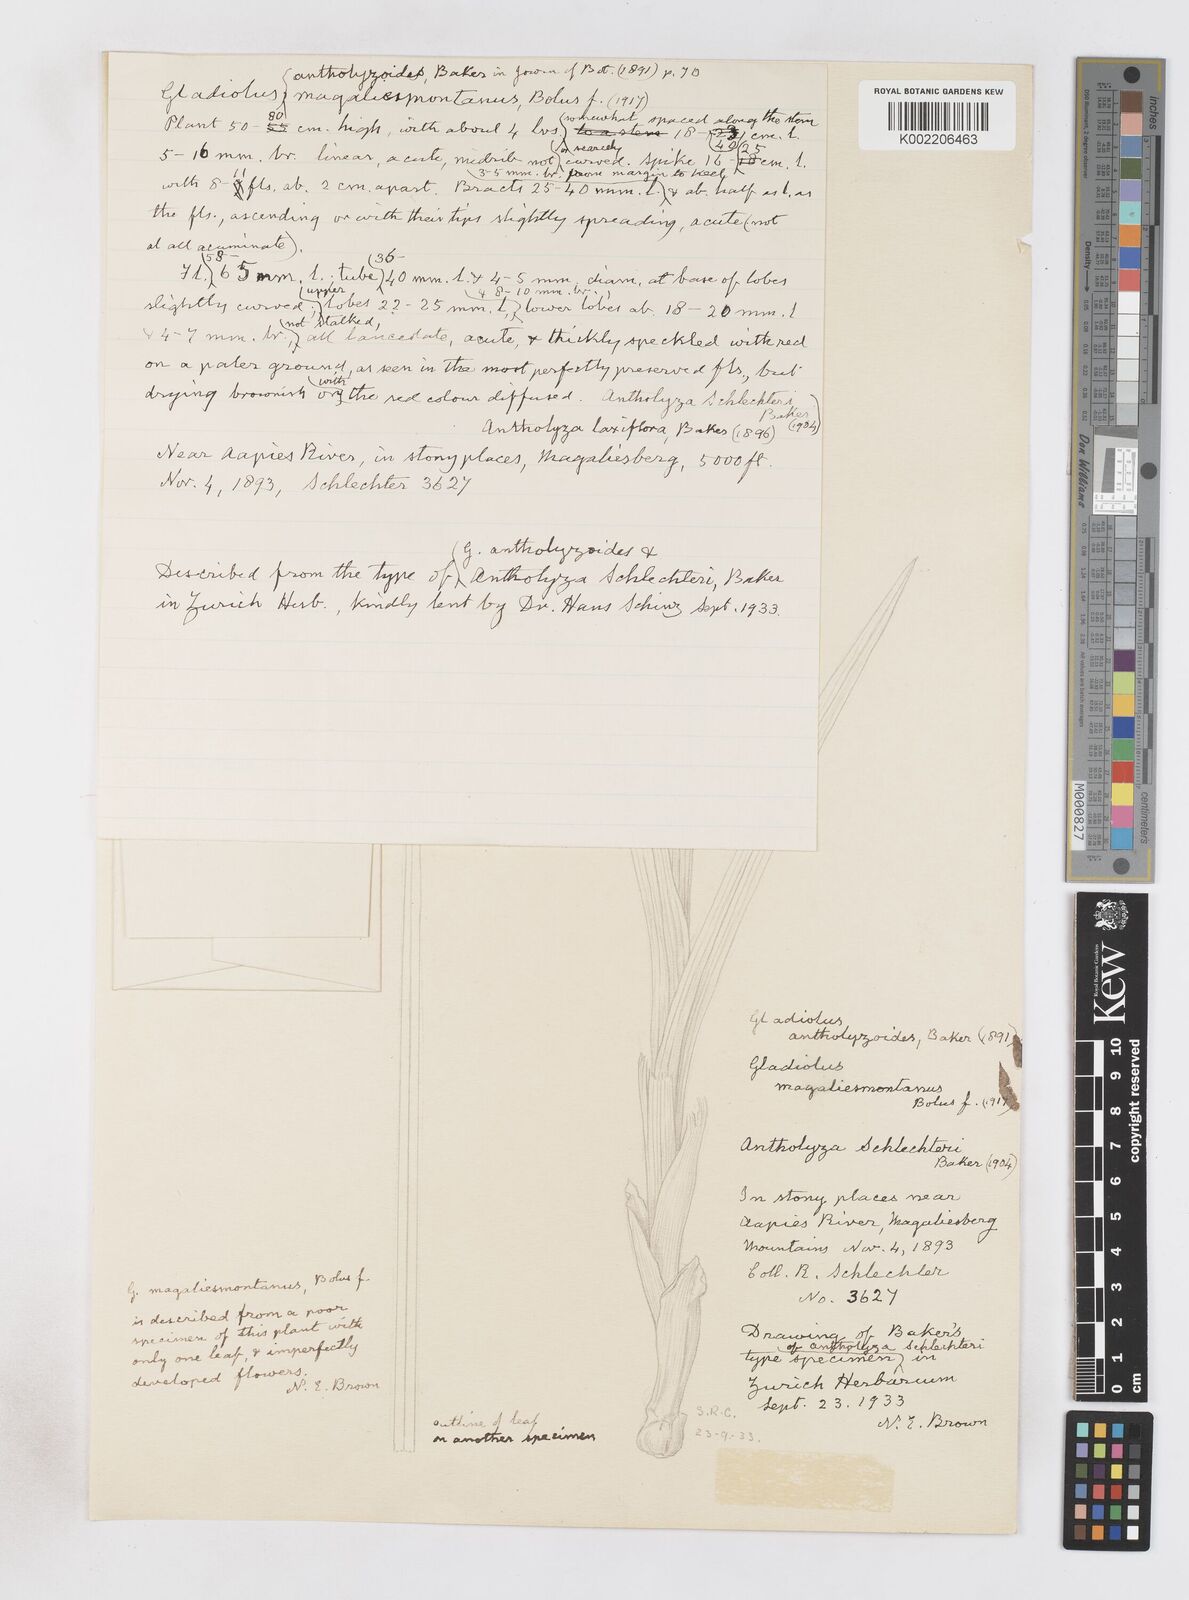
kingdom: Plantae
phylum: Tracheophyta
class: Liliopsida
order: Asparagales
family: Iridaceae
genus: Gladiolus
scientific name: Gladiolus antholyzoides
